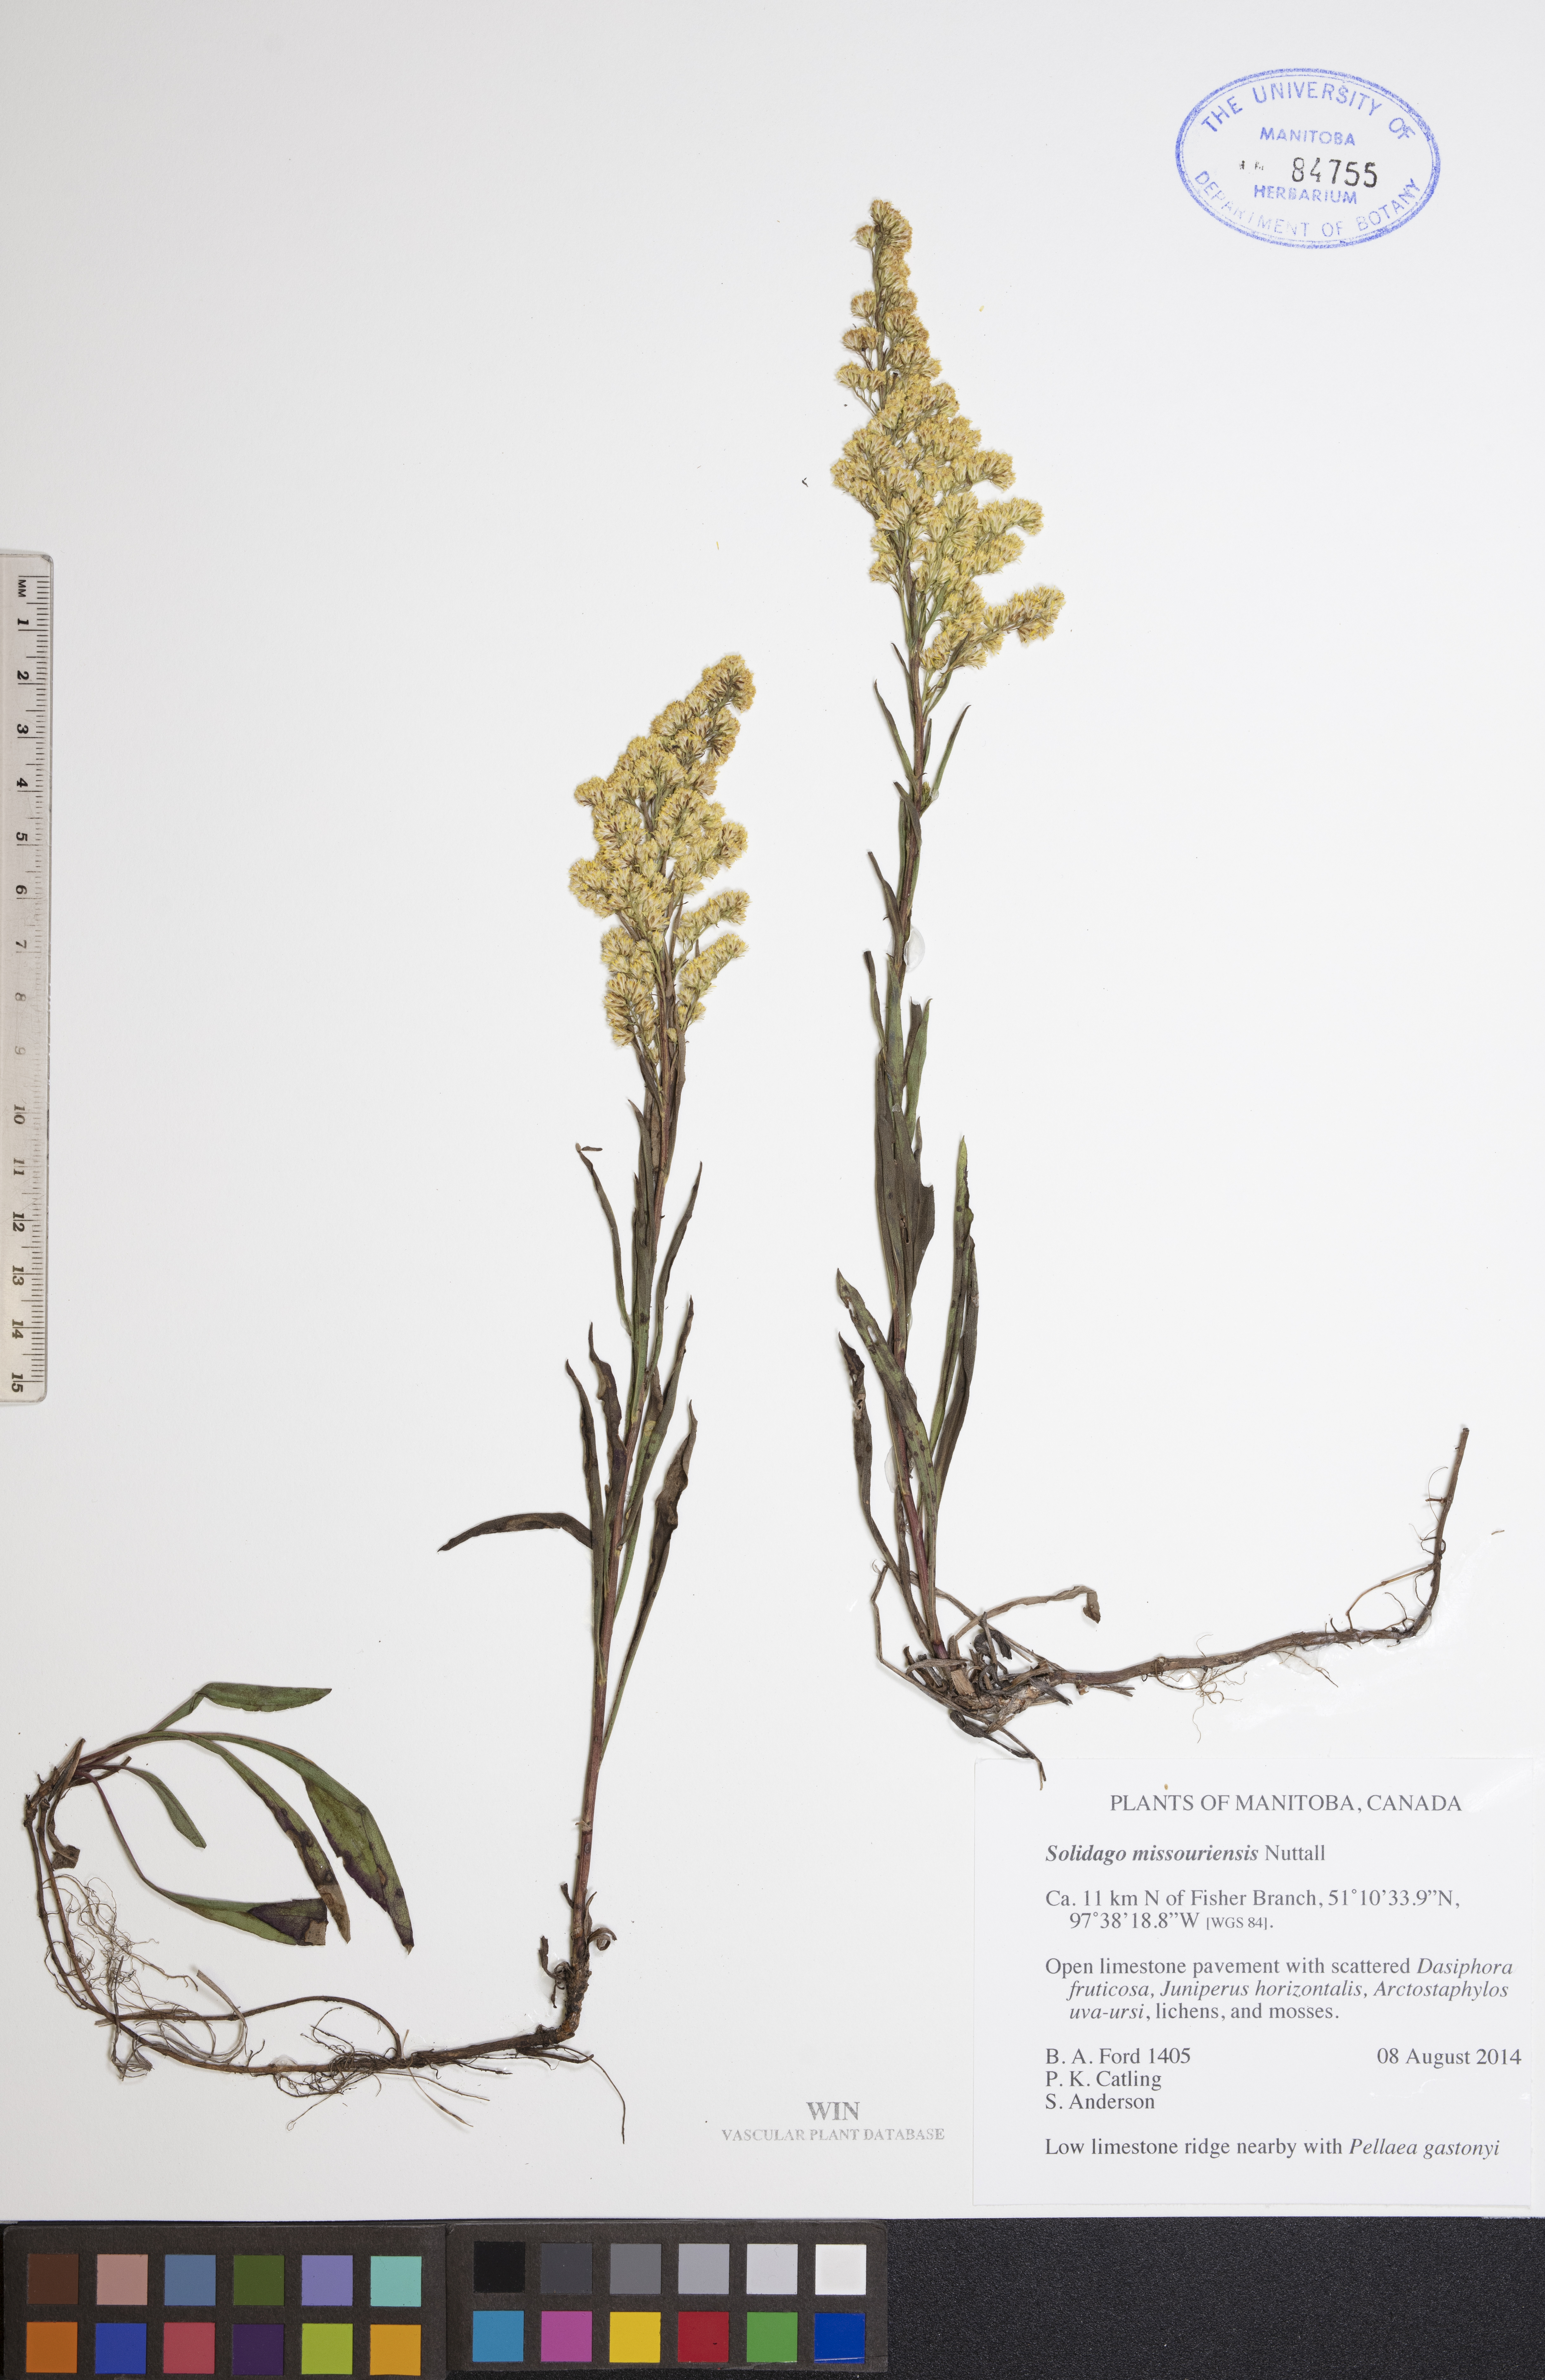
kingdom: Plantae
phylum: Tracheophyta
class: Magnoliopsida
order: Asterales
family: Asteraceae
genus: Solidago
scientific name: Solidago missouriensis
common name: Prairie goldenrod
